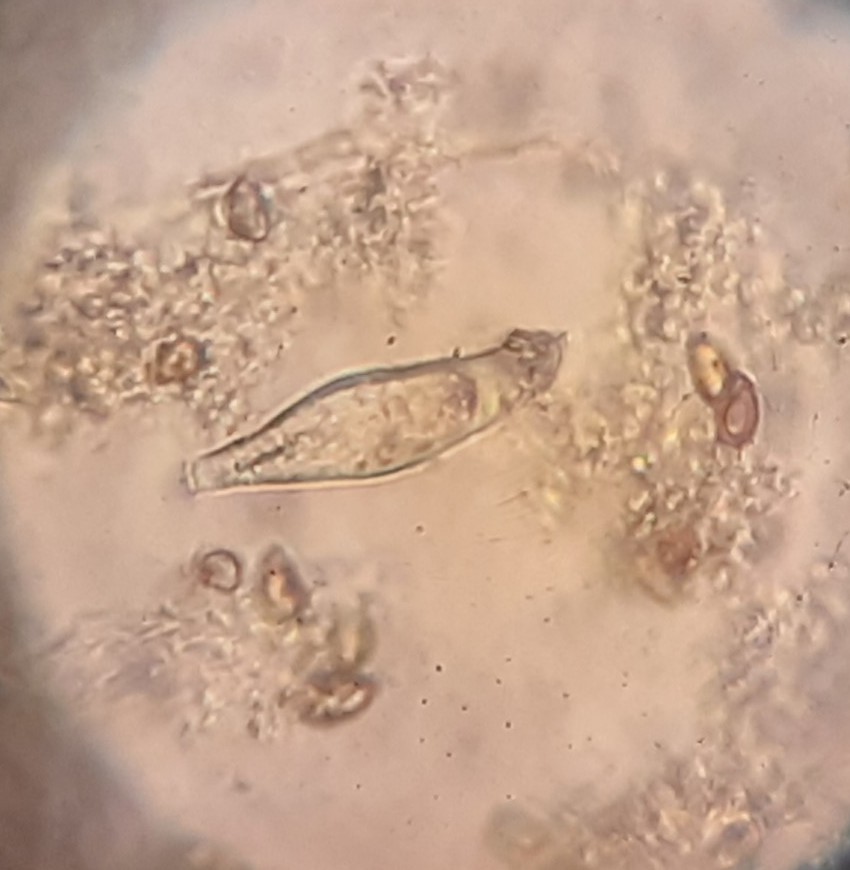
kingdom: Fungi
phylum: Basidiomycota
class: Agaricomycetes
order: Agaricales
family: Inocybaceae
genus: Inocybe
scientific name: Inocybe
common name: trævlhat
